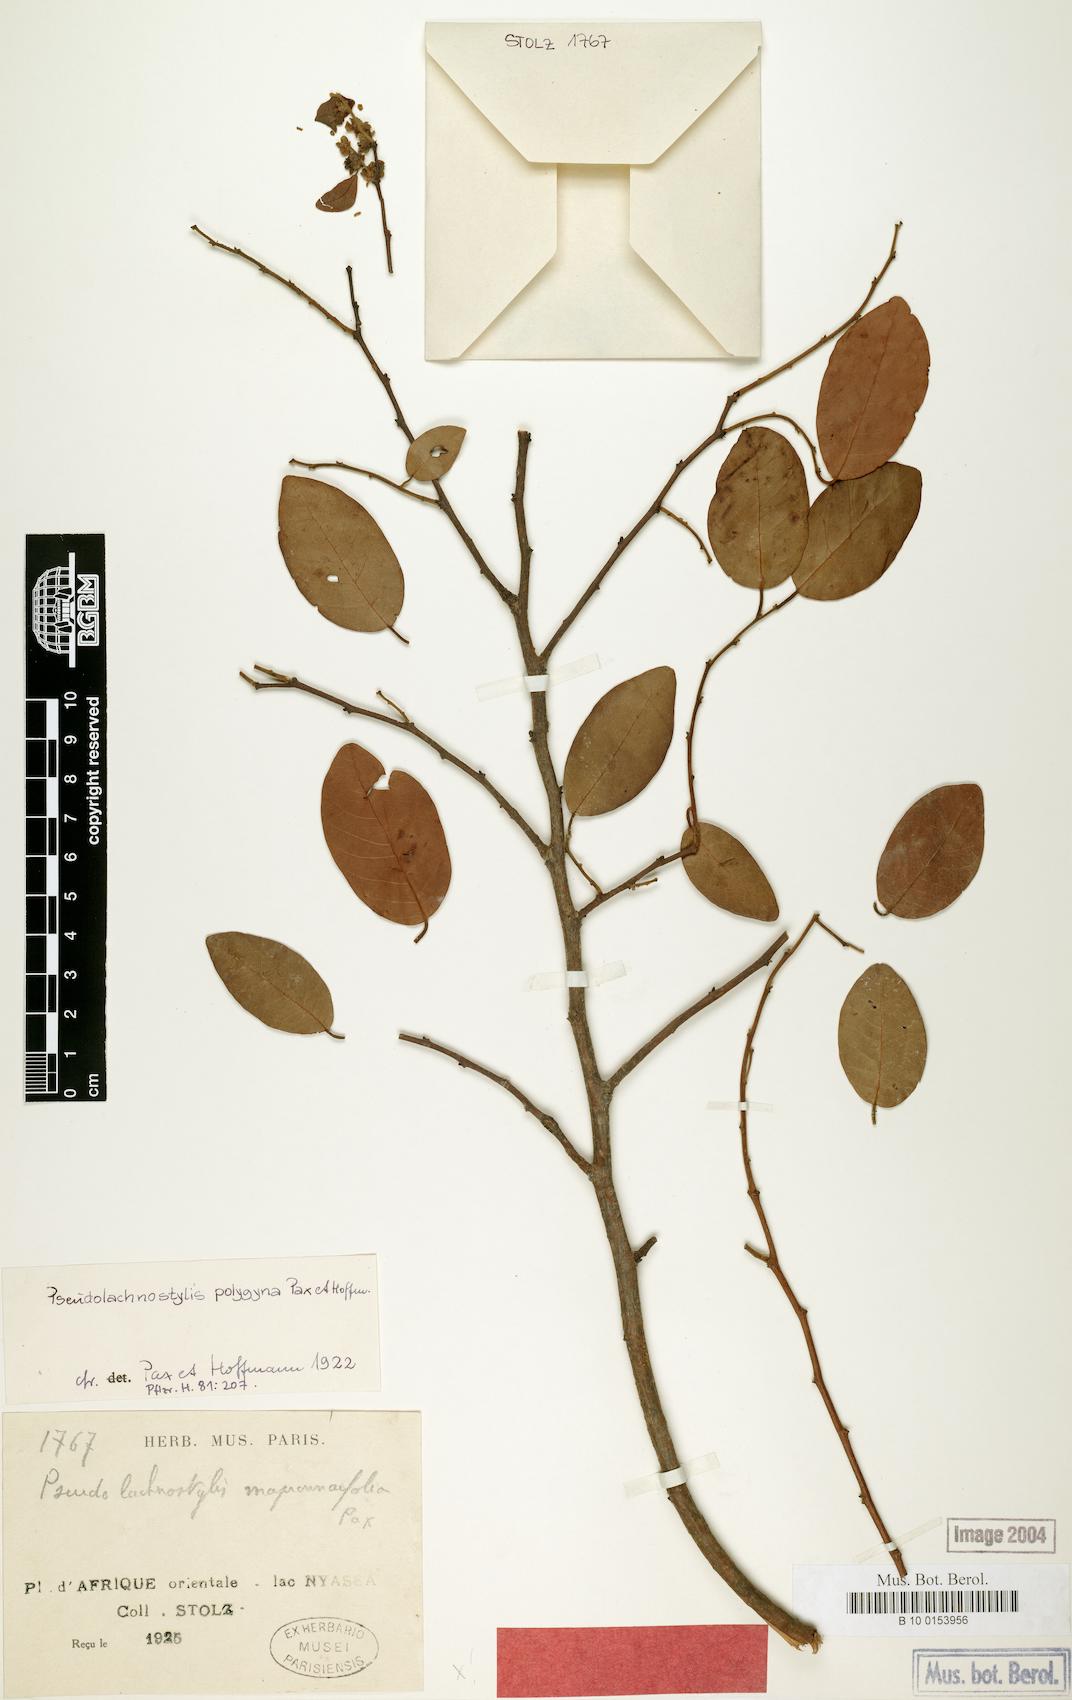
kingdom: Plantae
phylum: Tracheophyta
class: Magnoliopsida
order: Malpighiales
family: Phyllanthaceae
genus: Pseudolachnostylis
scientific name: Pseudolachnostylis maprouneifolia
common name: Kudu berry
